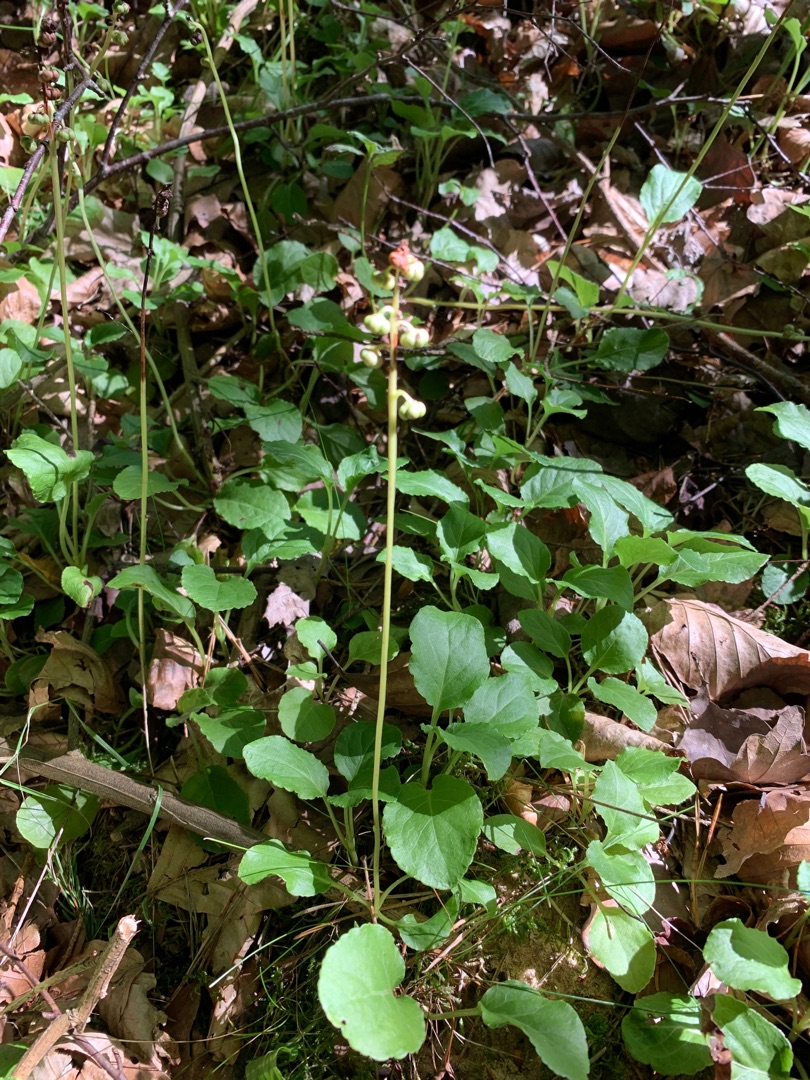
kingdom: Plantae
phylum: Tracheophyta
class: Magnoliopsida
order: Ericales
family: Ericaceae
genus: Pyrola
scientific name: Pyrola minor
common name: Liden vintergrøn
